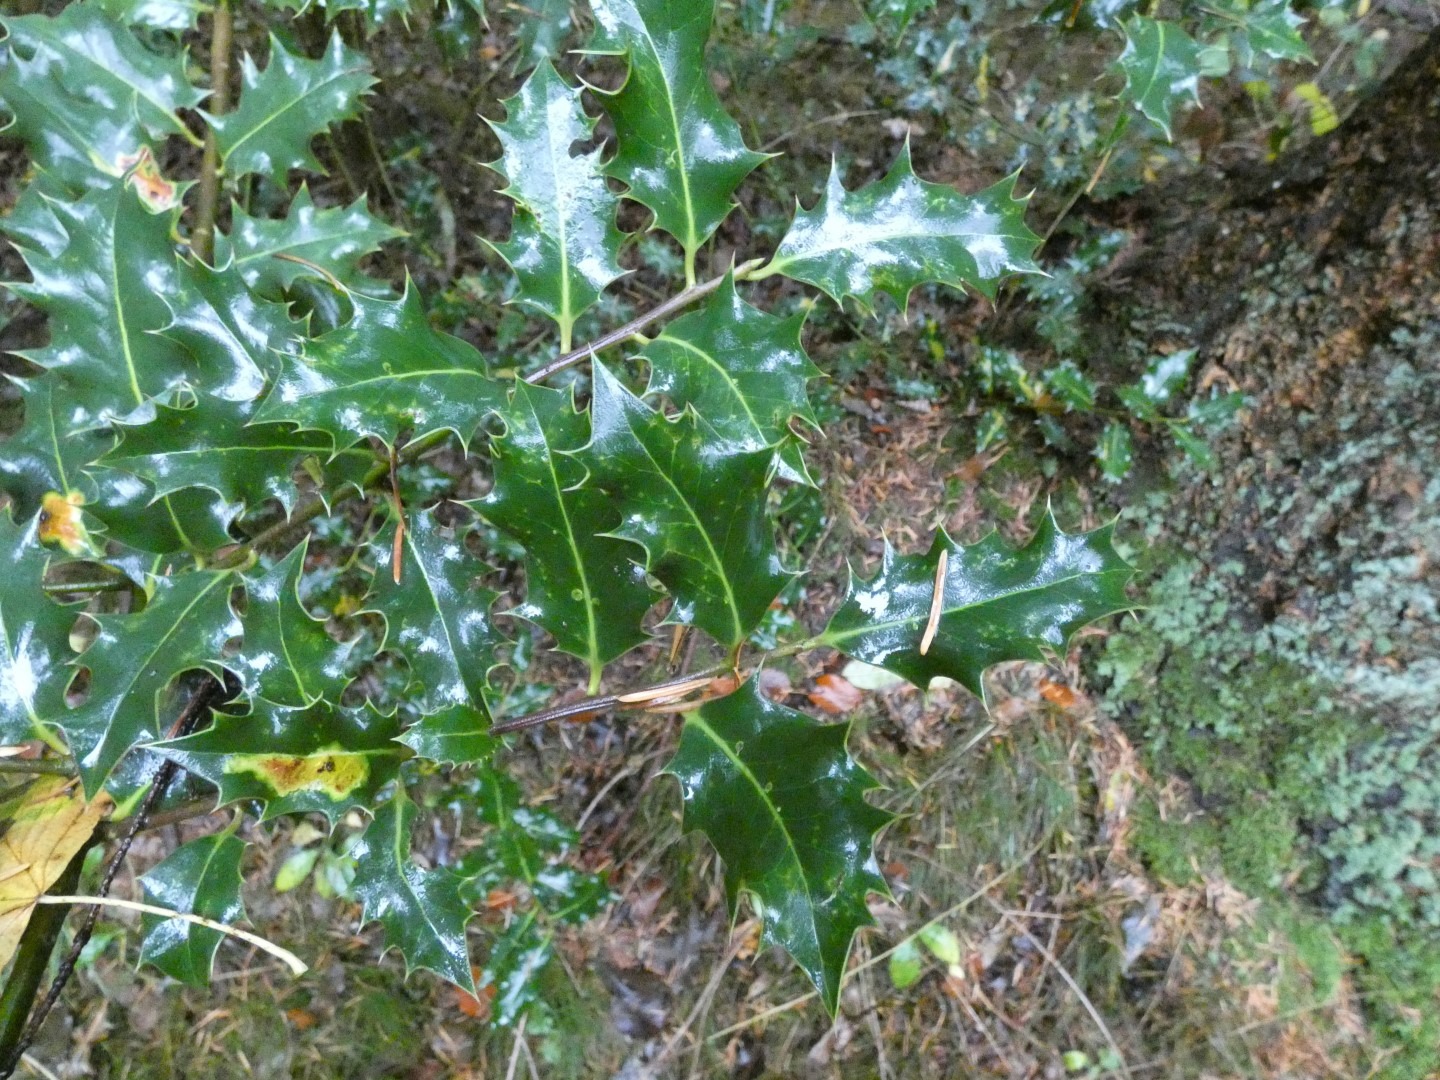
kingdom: Plantae
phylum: Tracheophyta
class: Magnoliopsida
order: Aquifoliales
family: Aquifoliaceae
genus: Ilex
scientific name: Ilex aquifolium
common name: Kristtorn
